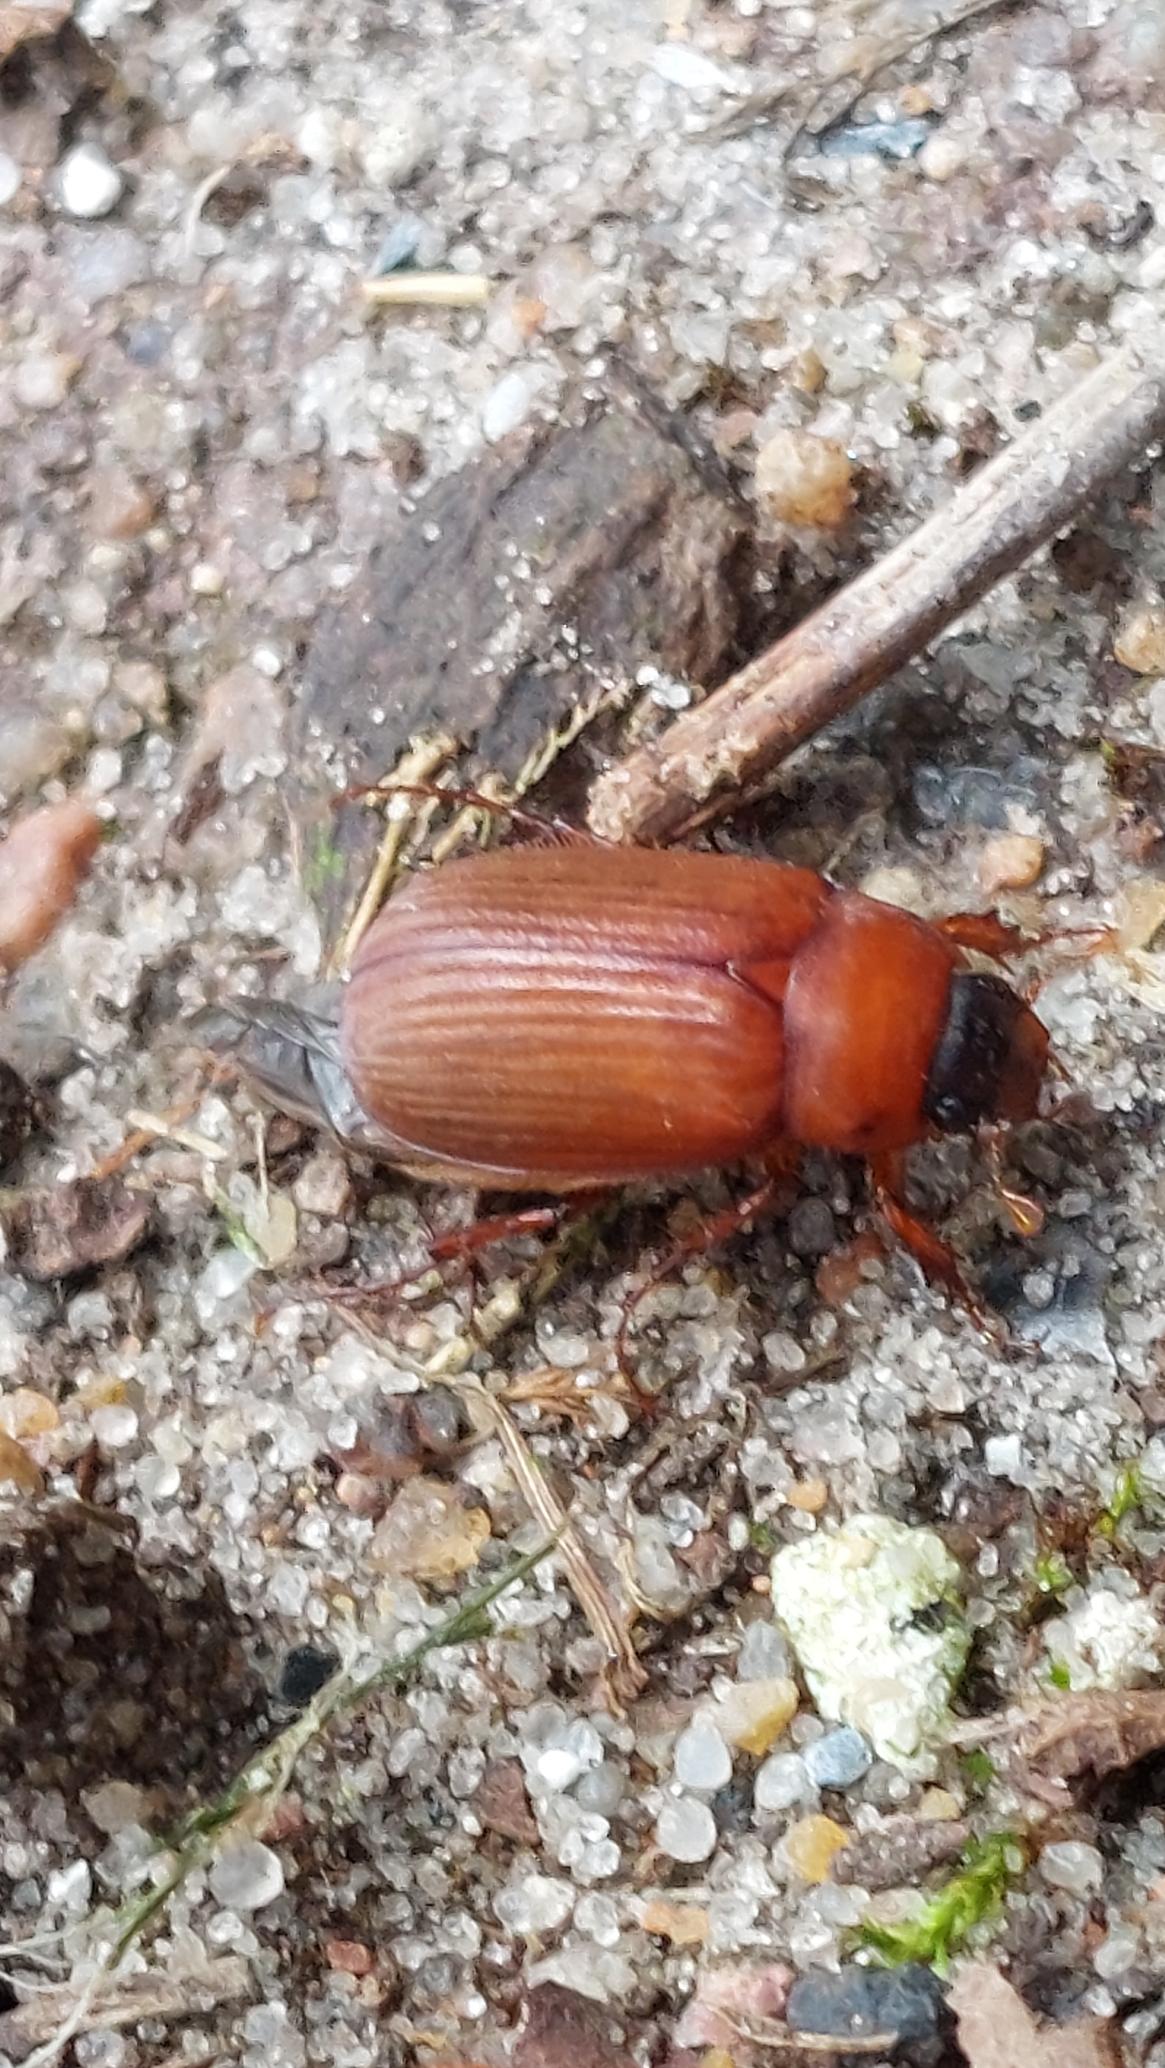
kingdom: Animalia
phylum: Arthropoda
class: Insecta
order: Coleoptera
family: Scarabaeidae
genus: Serica
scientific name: Serica brunnea
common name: Natoldenborre
